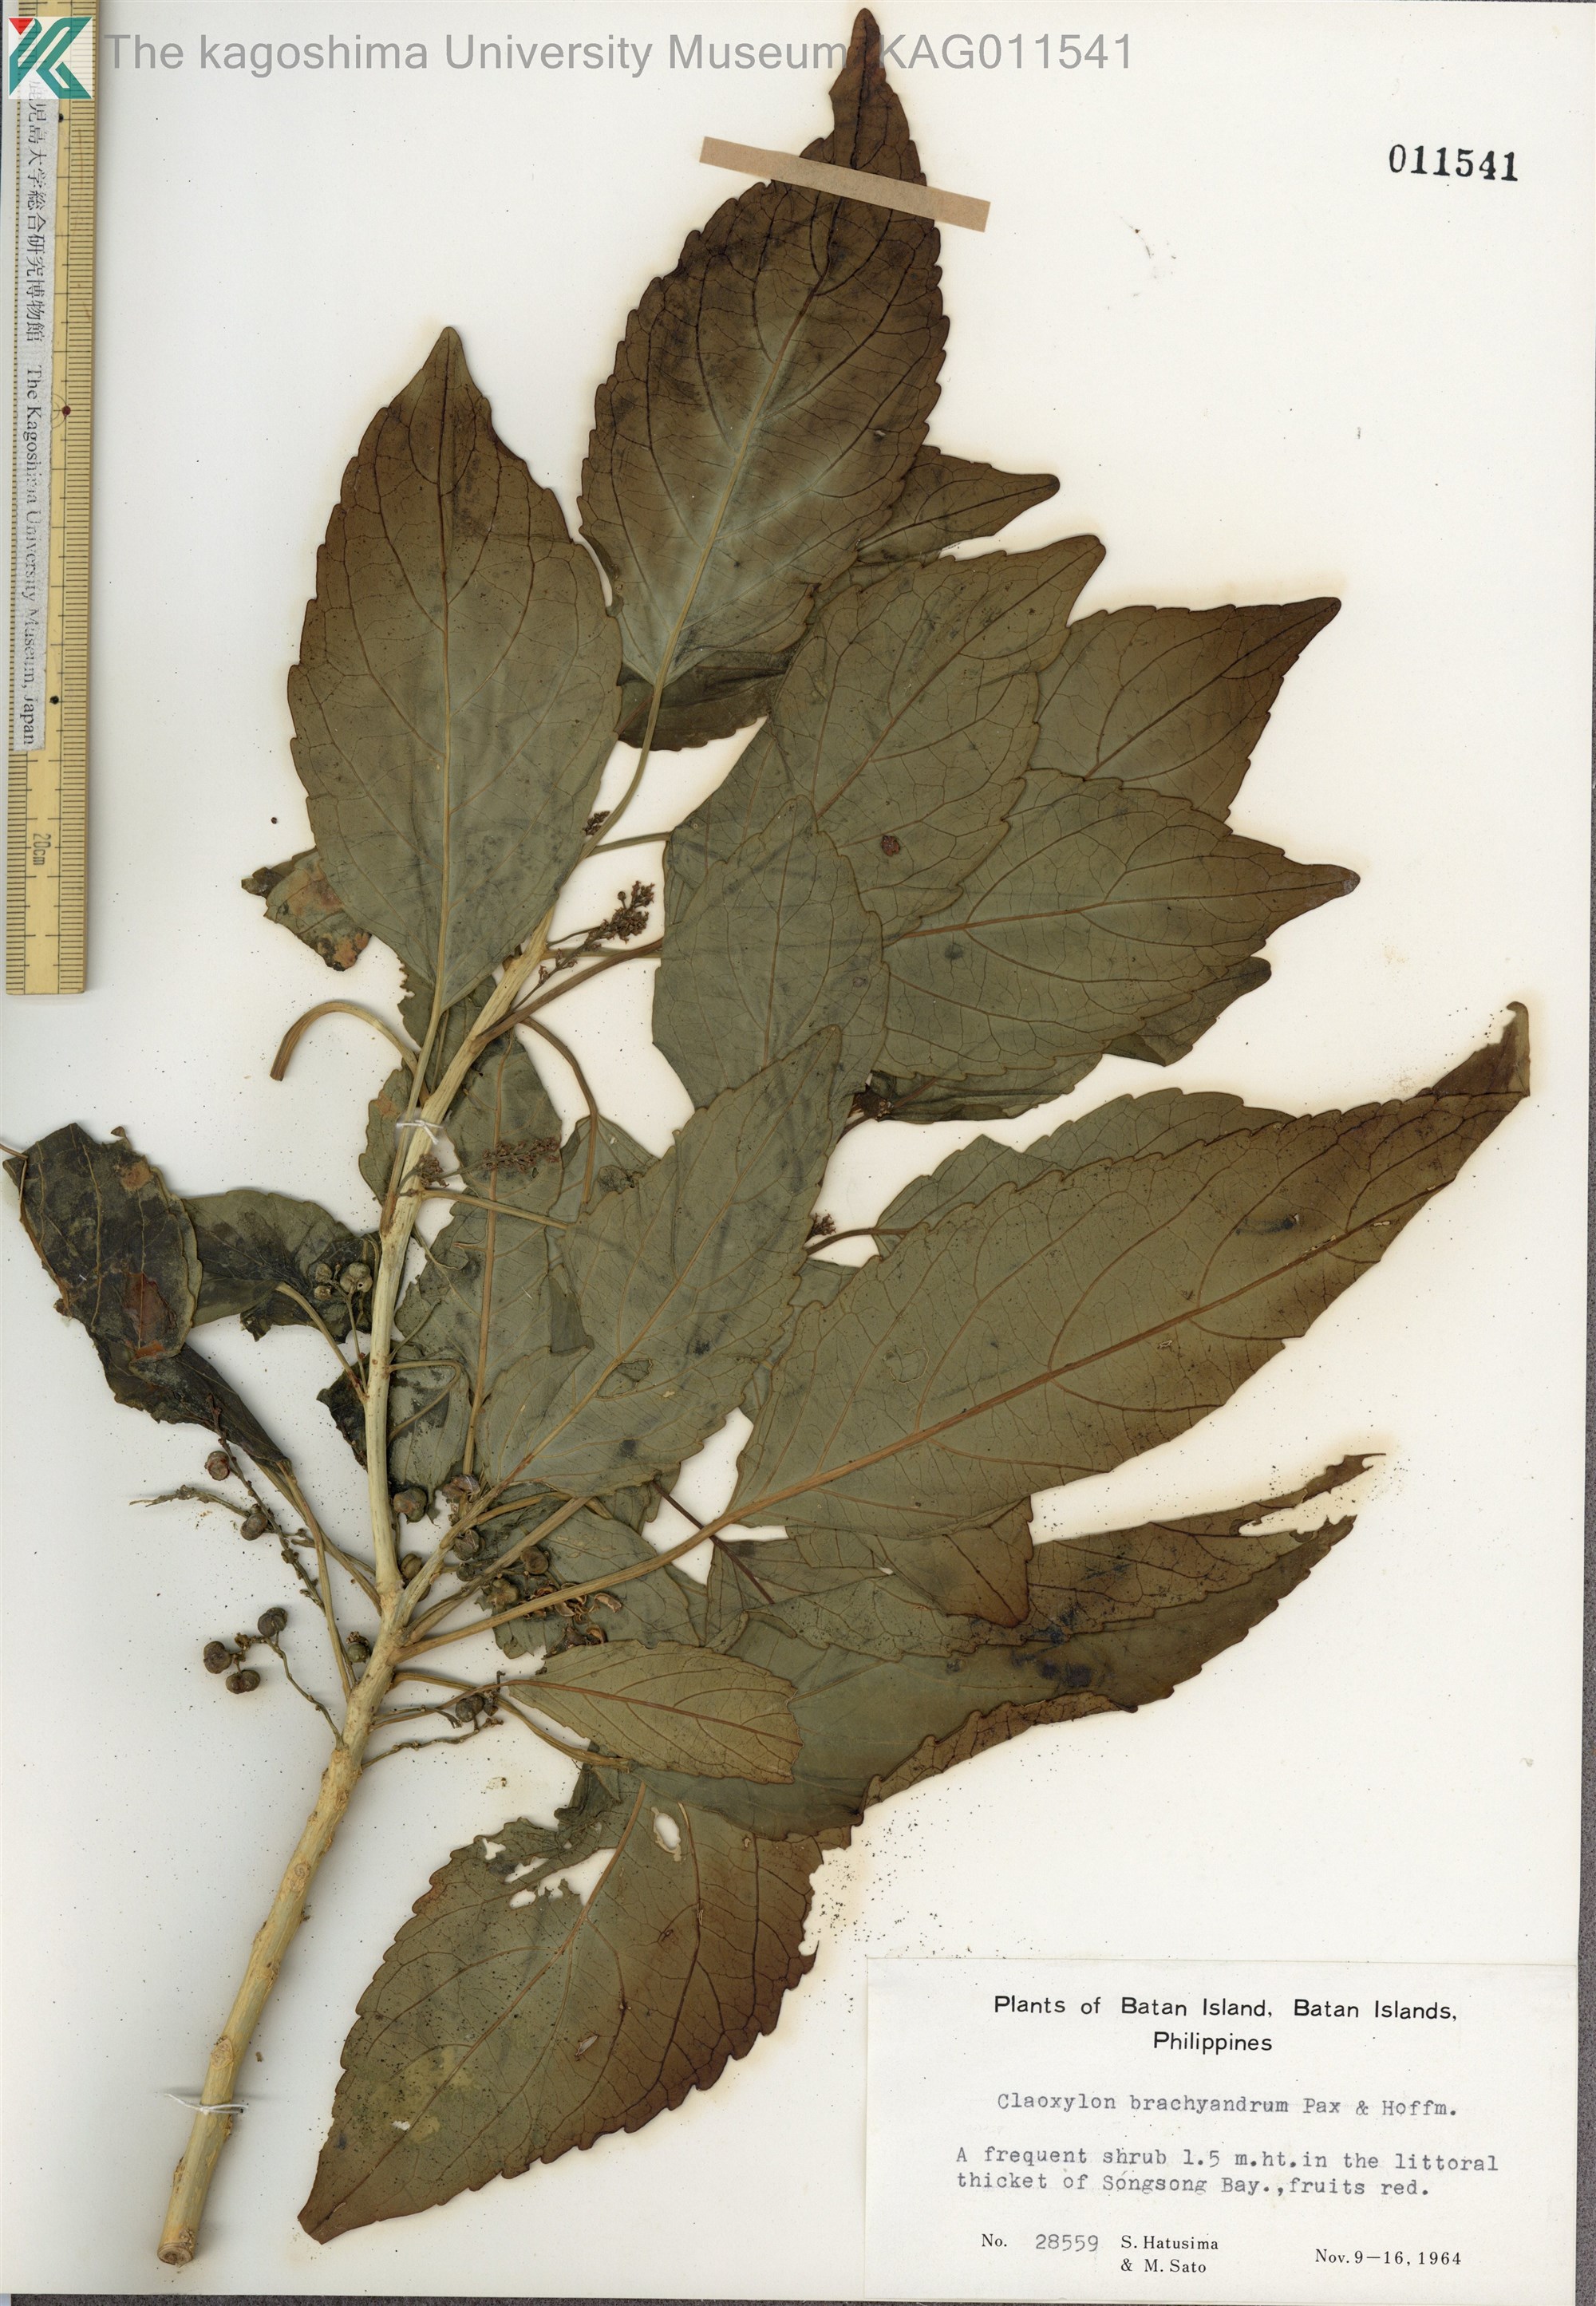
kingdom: Plantae
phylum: Tracheophyta
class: Magnoliopsida
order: Malpighiales
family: Euphorbiaceae
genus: Claoxylon
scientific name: Claoxylon brachyandrum
